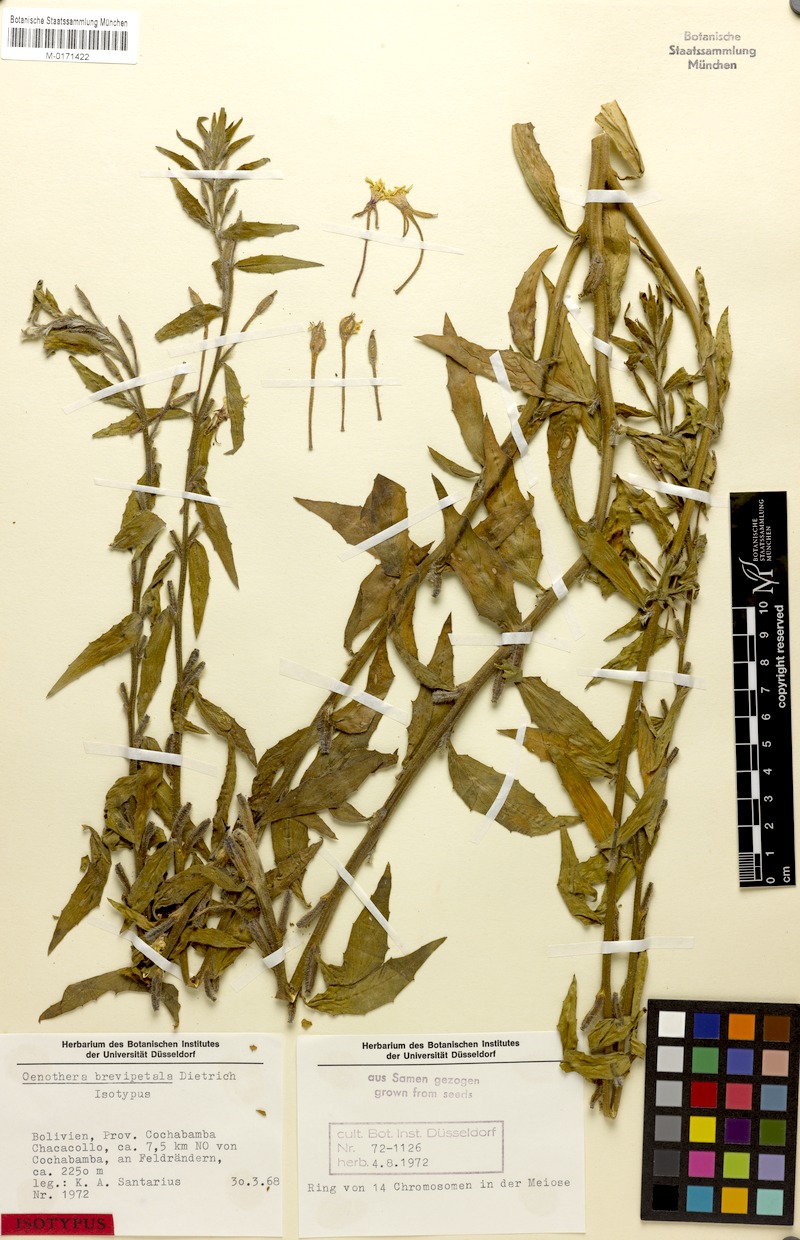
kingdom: Plantae
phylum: Tracheophyta
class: Magnoliopsida
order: Myrtales
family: Onagraceae
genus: Oenothera
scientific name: Oenothera brevipetala
